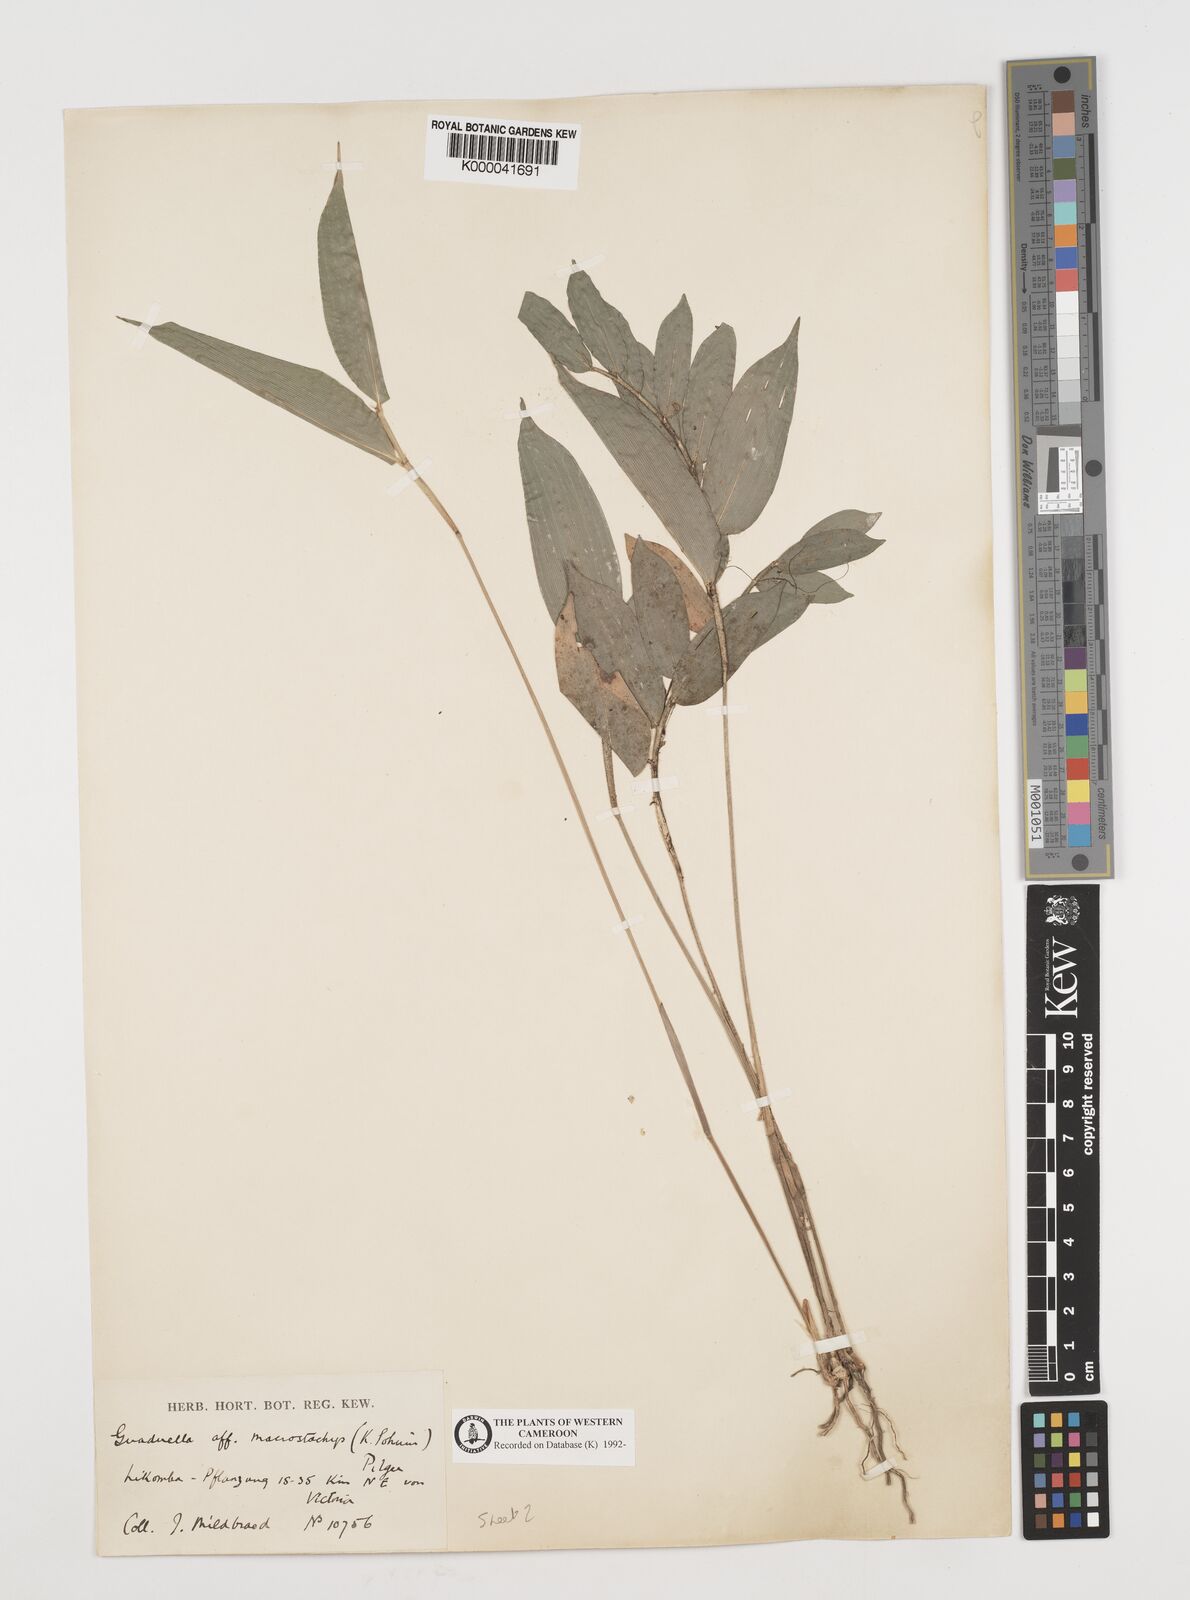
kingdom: Plantae
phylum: Tracheophyta
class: Liliopsida
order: Poales
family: Poaceae
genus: Guaduella
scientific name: Guaduella macrostachys
